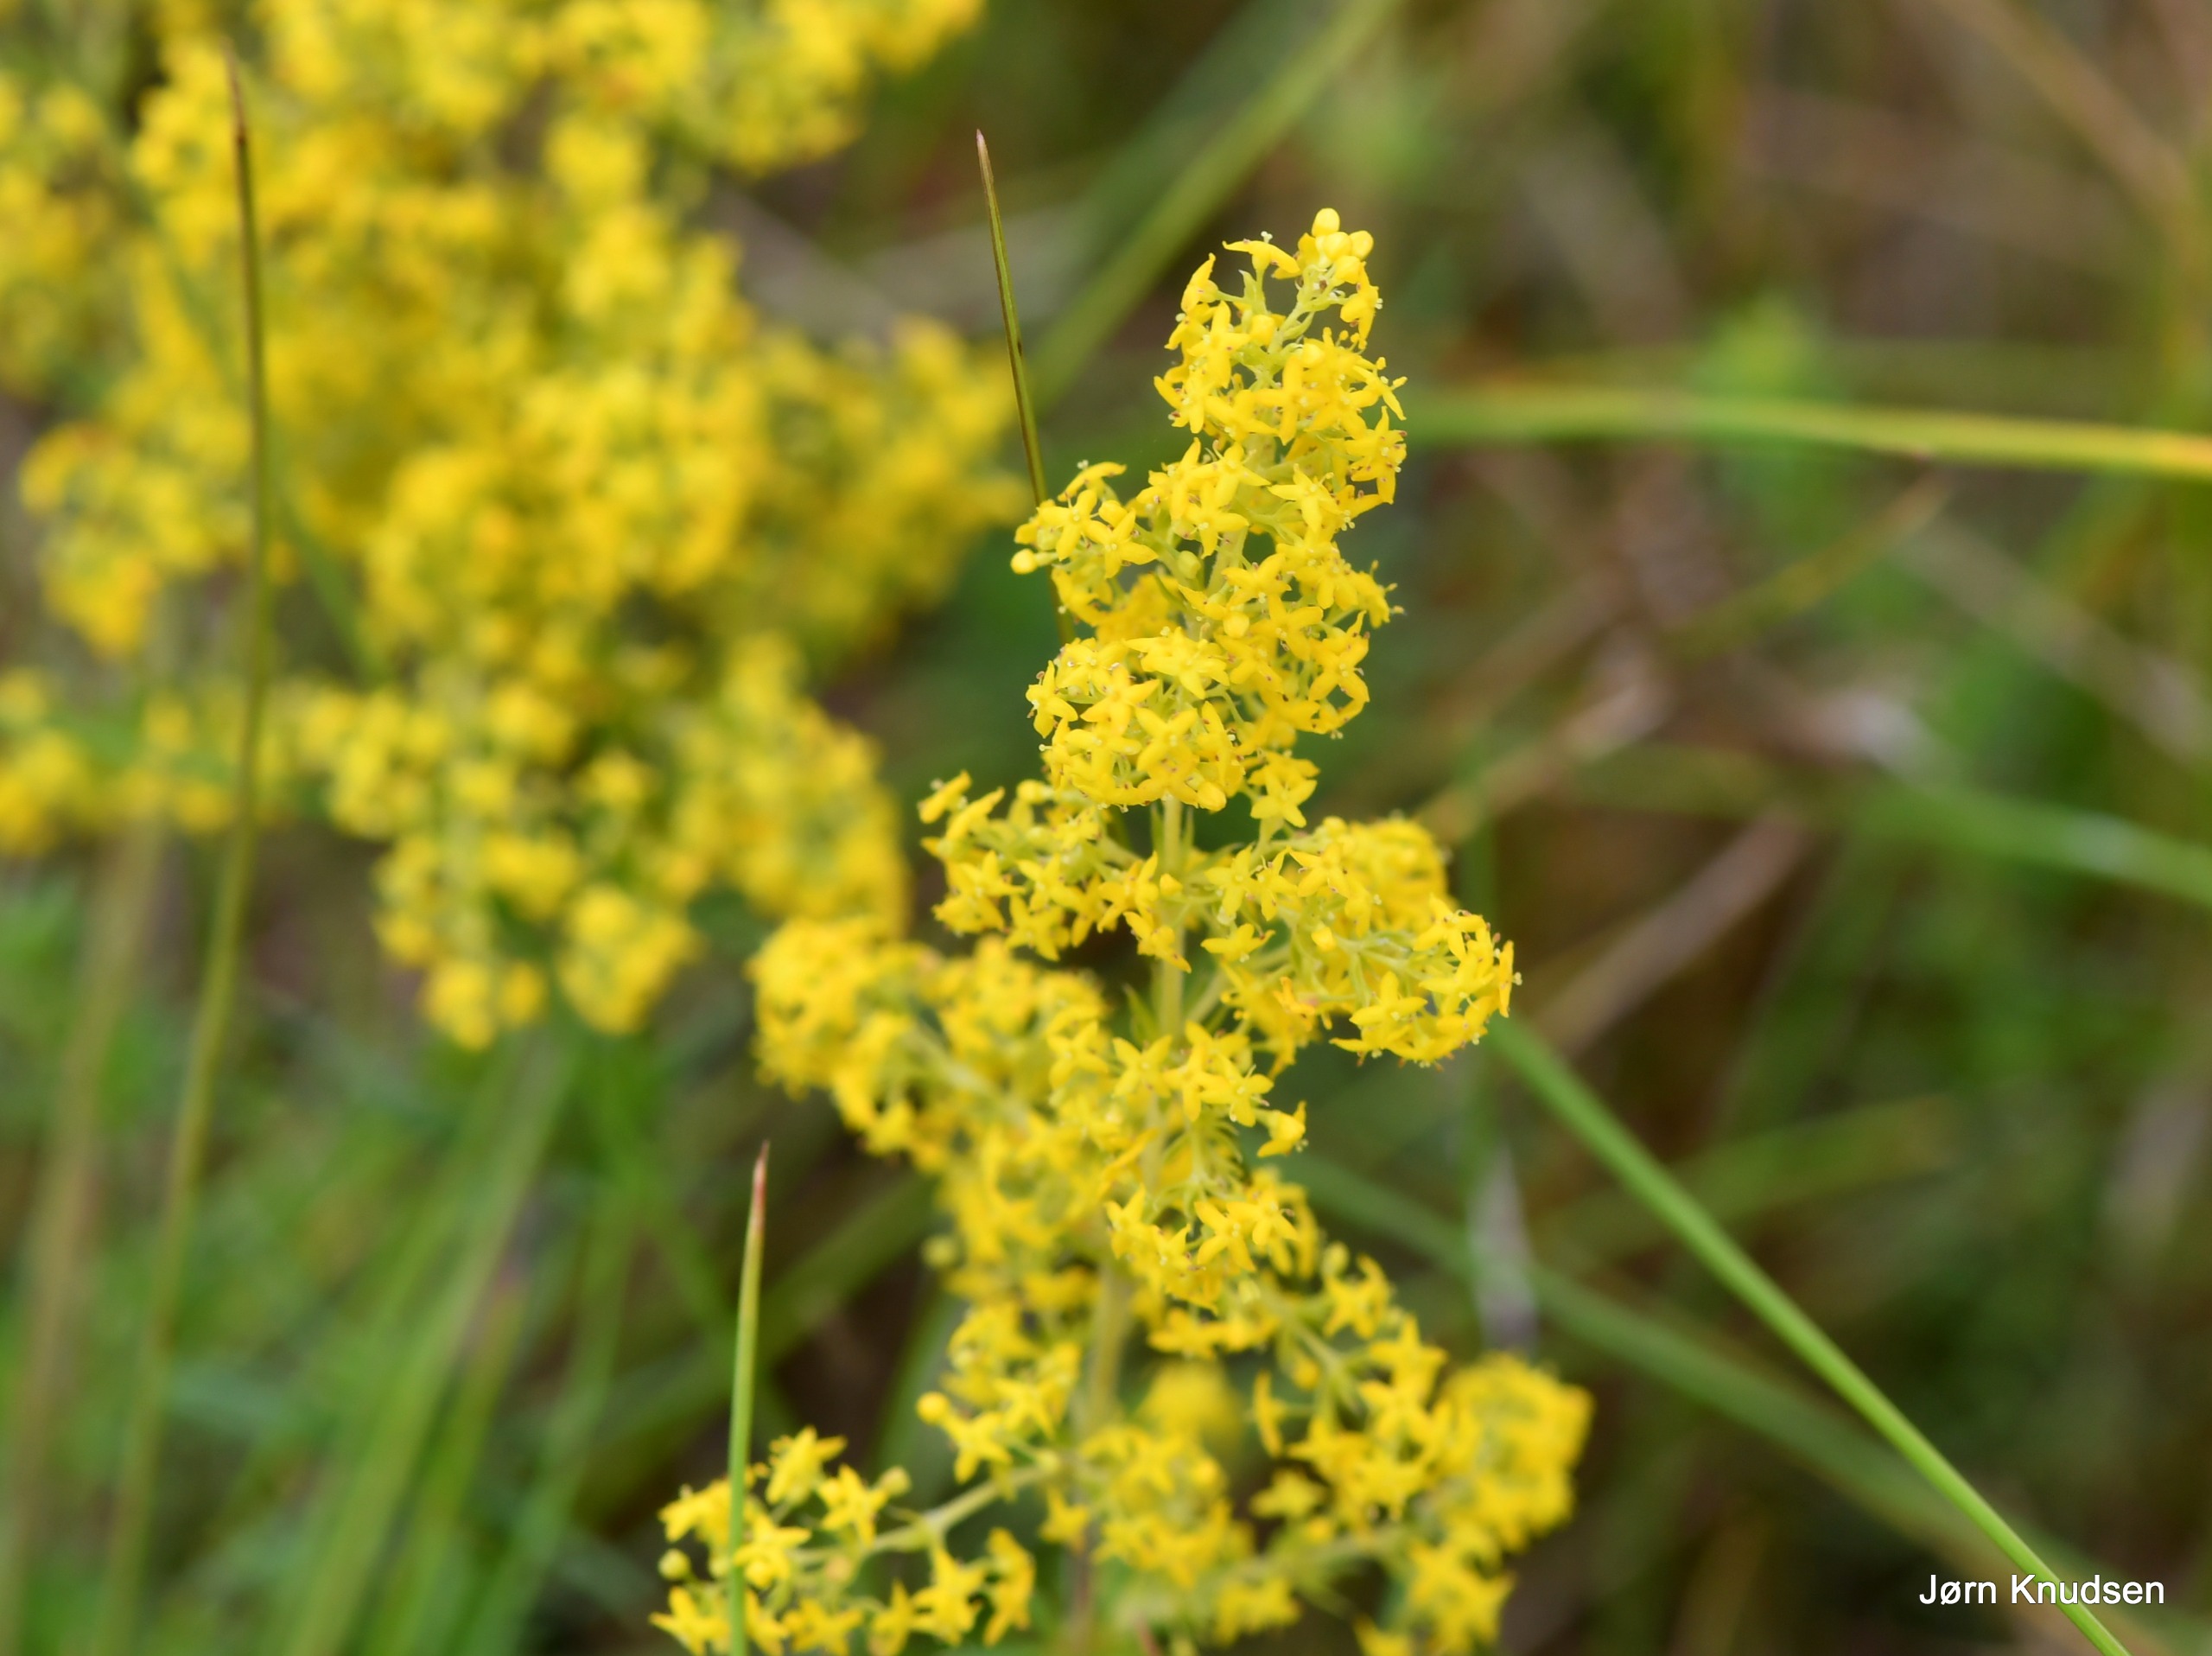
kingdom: Plantae
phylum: Tracheophyta
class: Magnoliopsida
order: Gentianales
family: Rubiaceae
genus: Galium
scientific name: Galium verum
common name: Gul snerre
